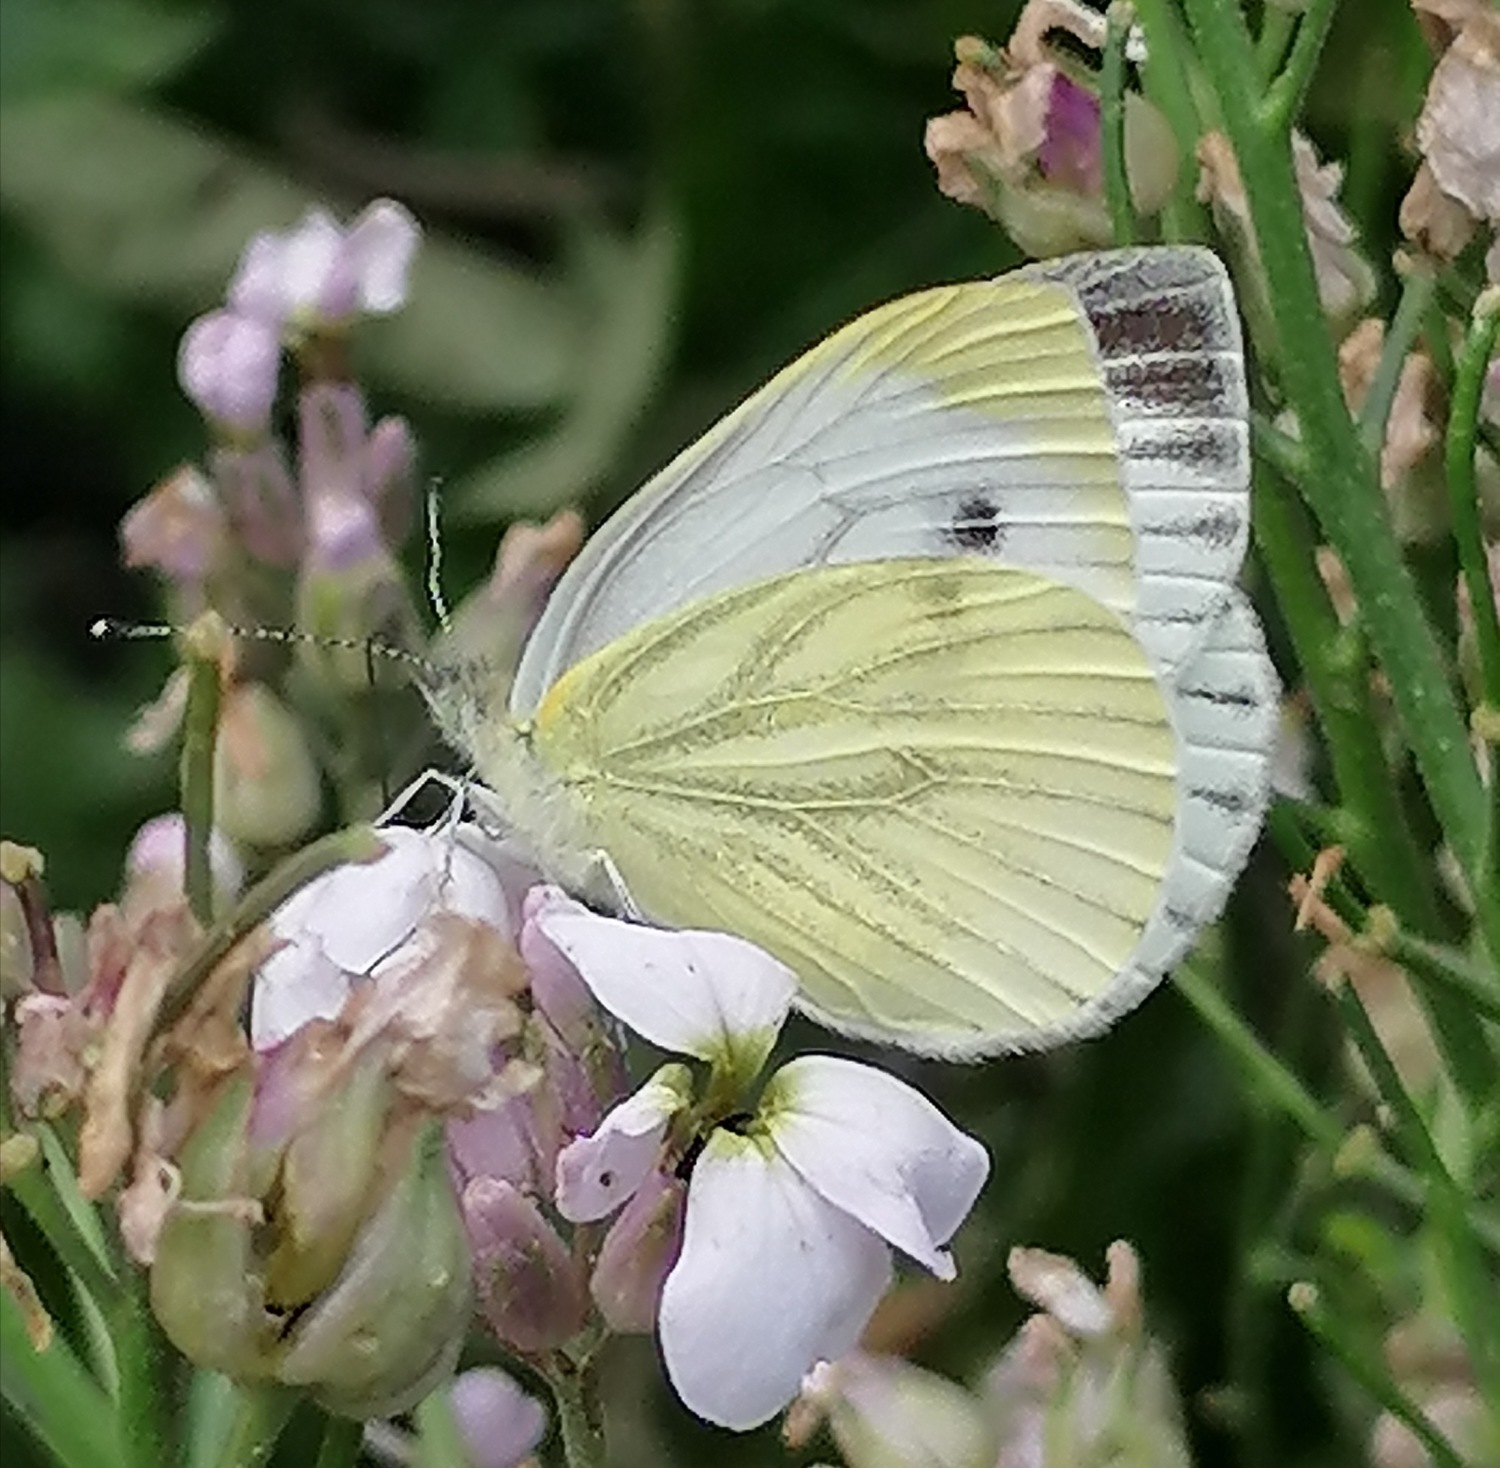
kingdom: Animalia
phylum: Arthropoda
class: Insecta
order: Lepidoptera
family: Pieridae
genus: Pieris
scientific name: Pieris napi
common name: Grønåret kålsommerfugl
